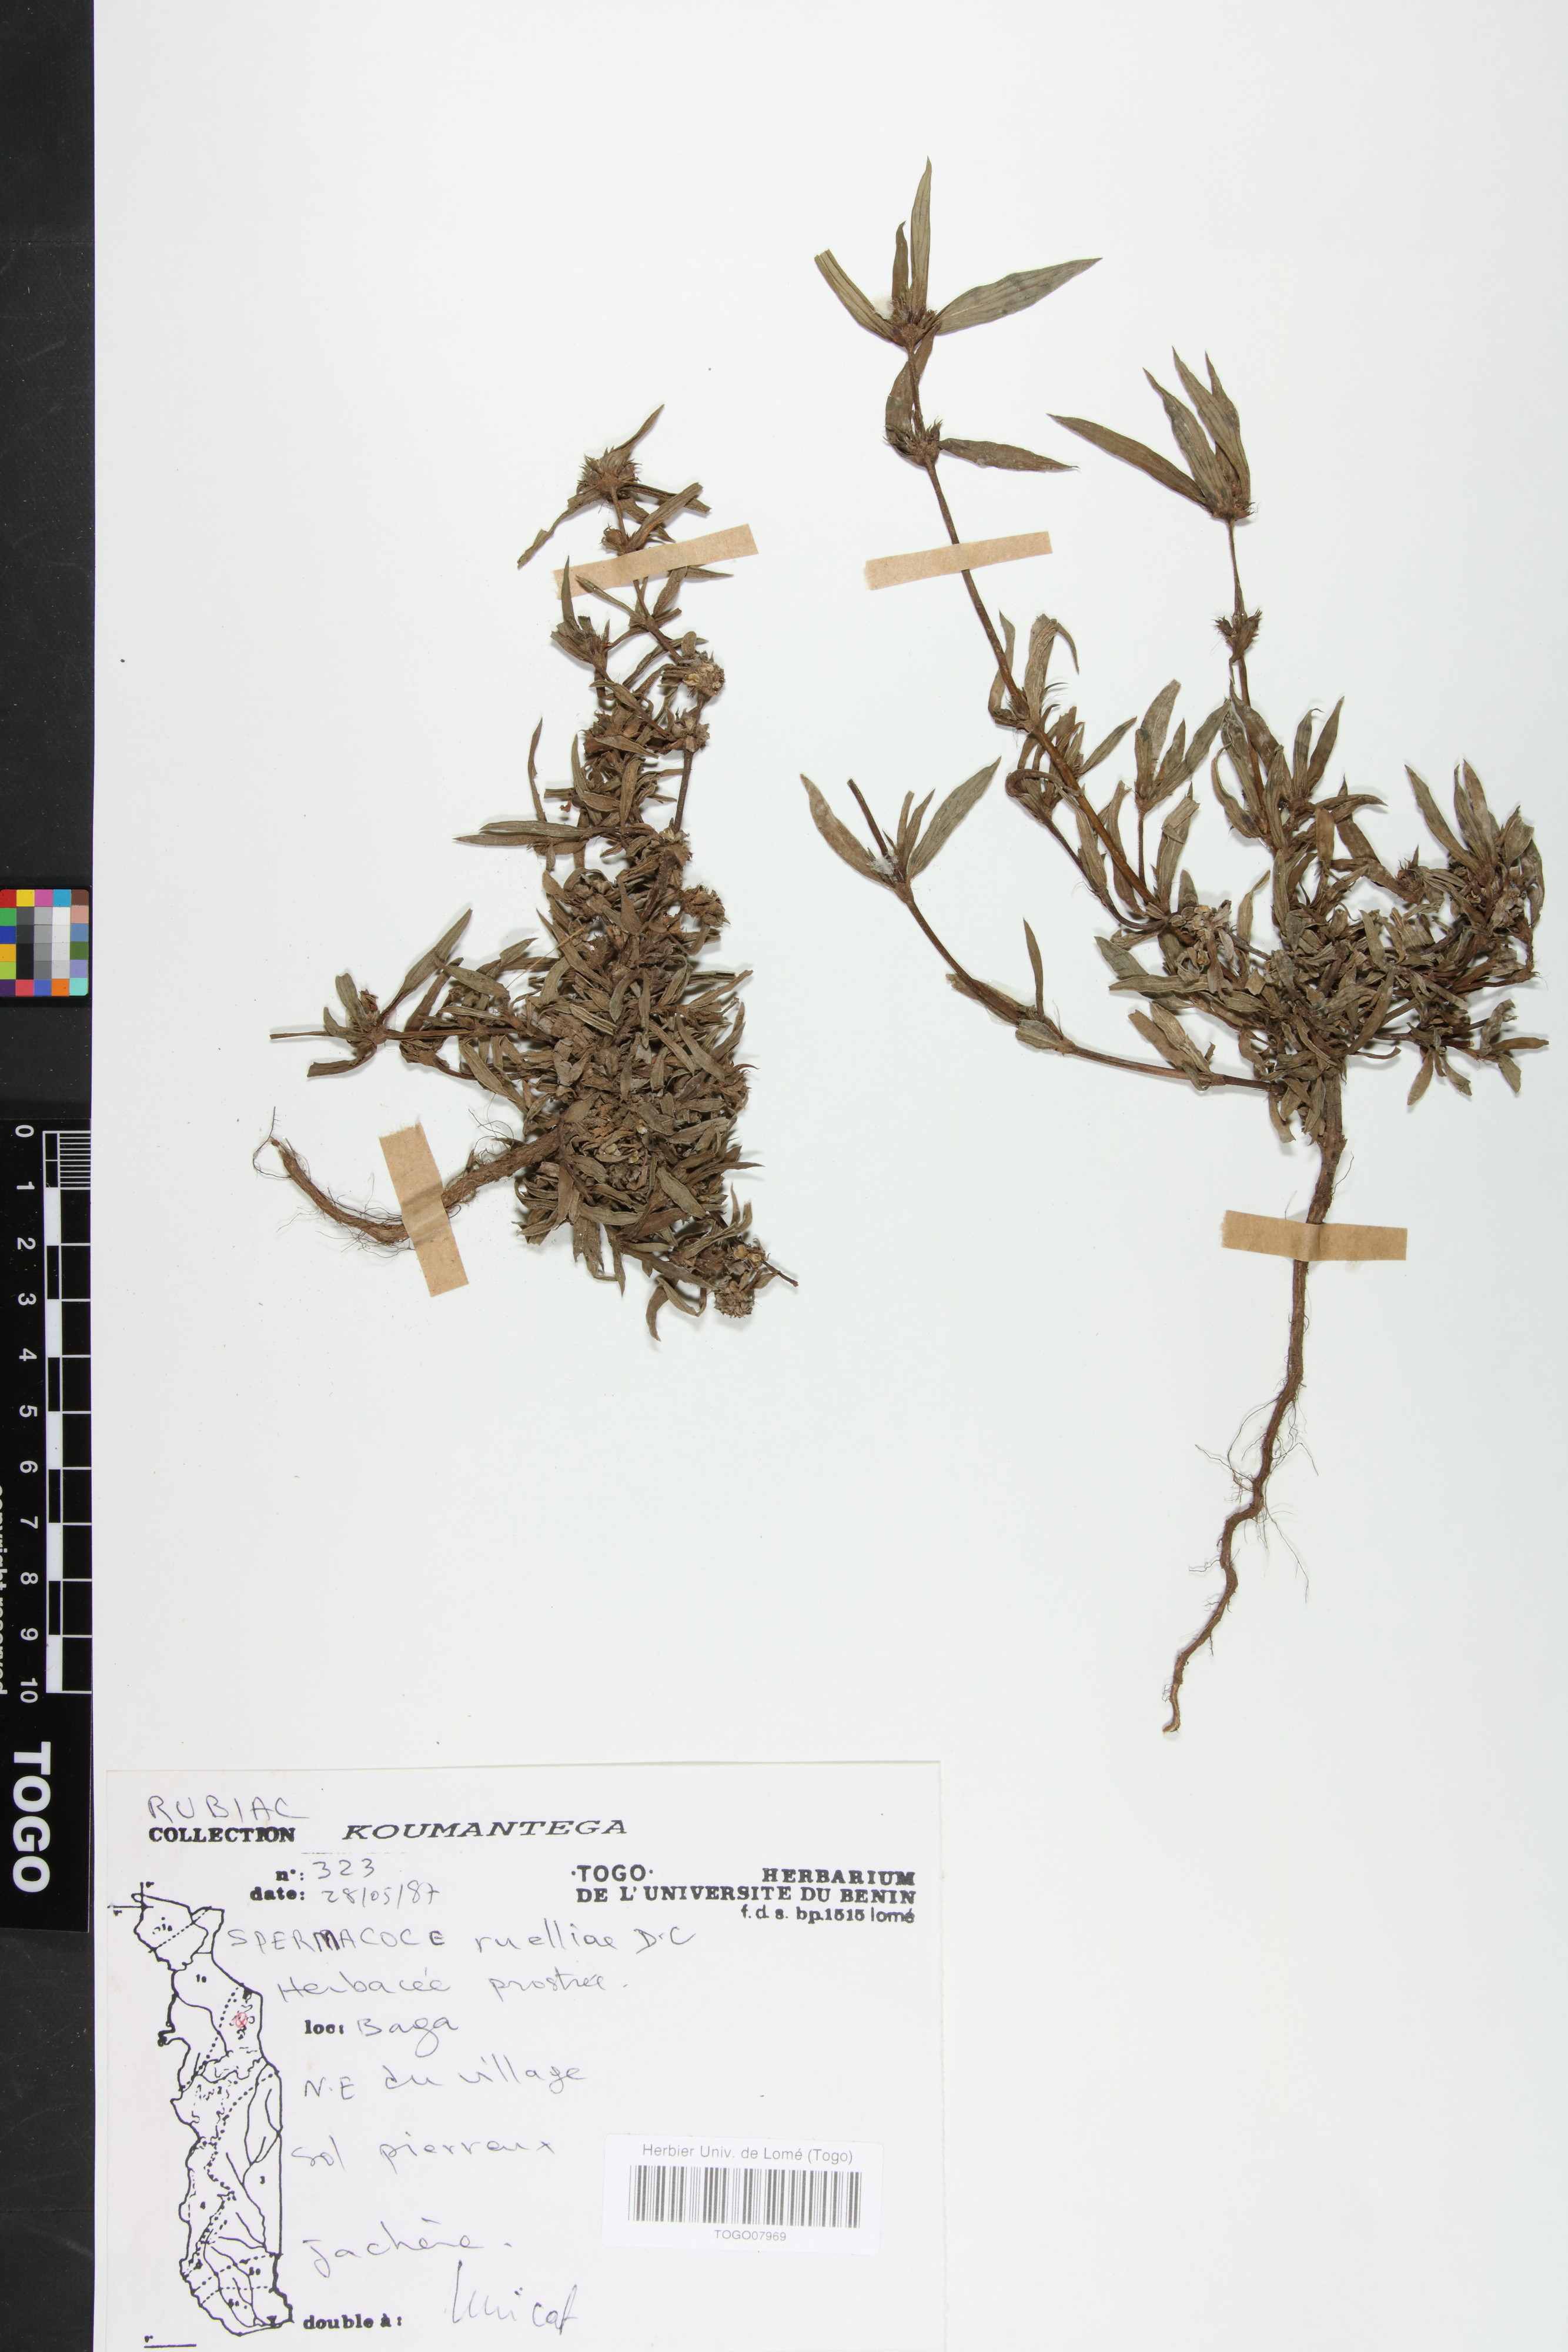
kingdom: Plantae
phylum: Tracheophyta
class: Magnoliopsida
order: Gentianales
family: Rubiaceae
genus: Spermacoce
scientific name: Spermacoce ruelliae
